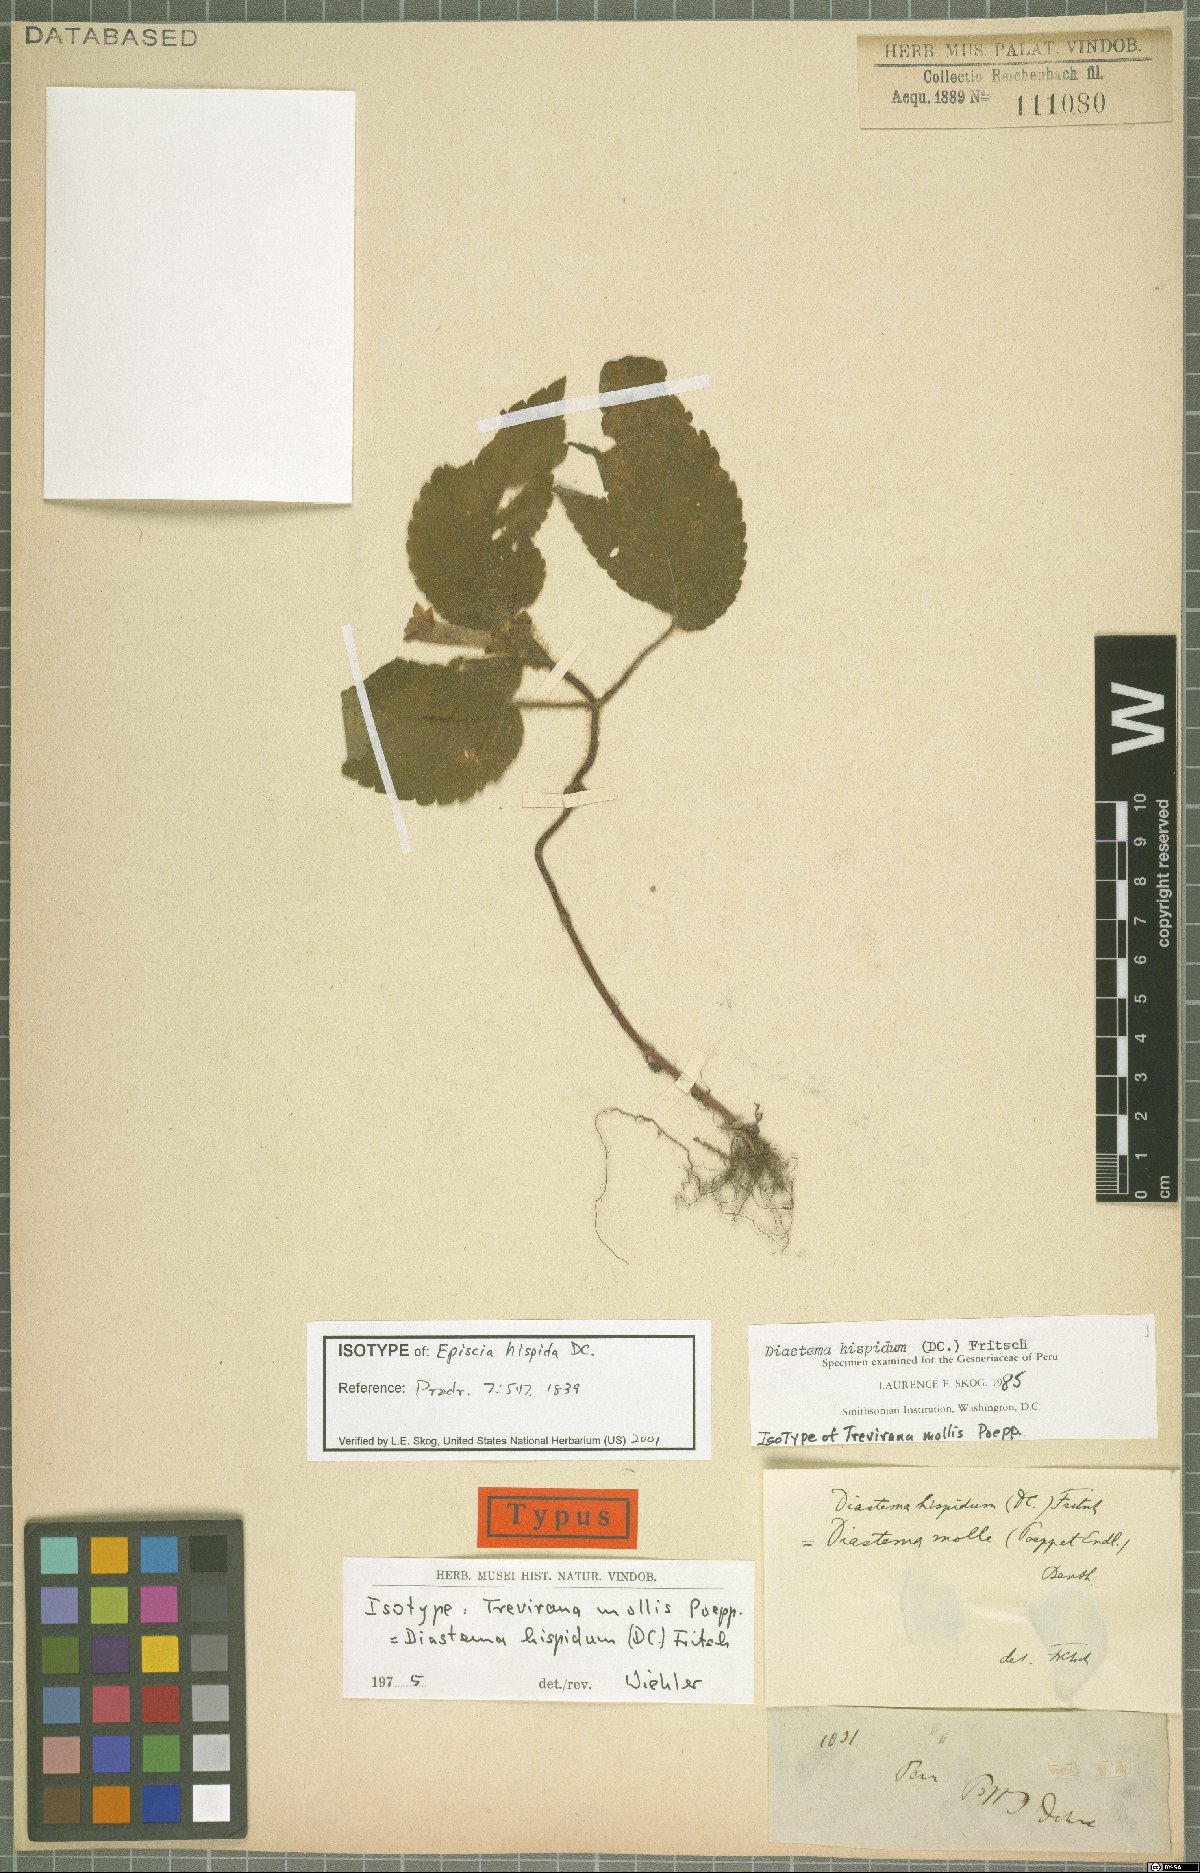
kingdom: Plantae
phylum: Tracheophyta
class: Magnoliopsida
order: Lamiales
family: Gesneriaceae
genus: Diastema
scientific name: Diastema hispidum
